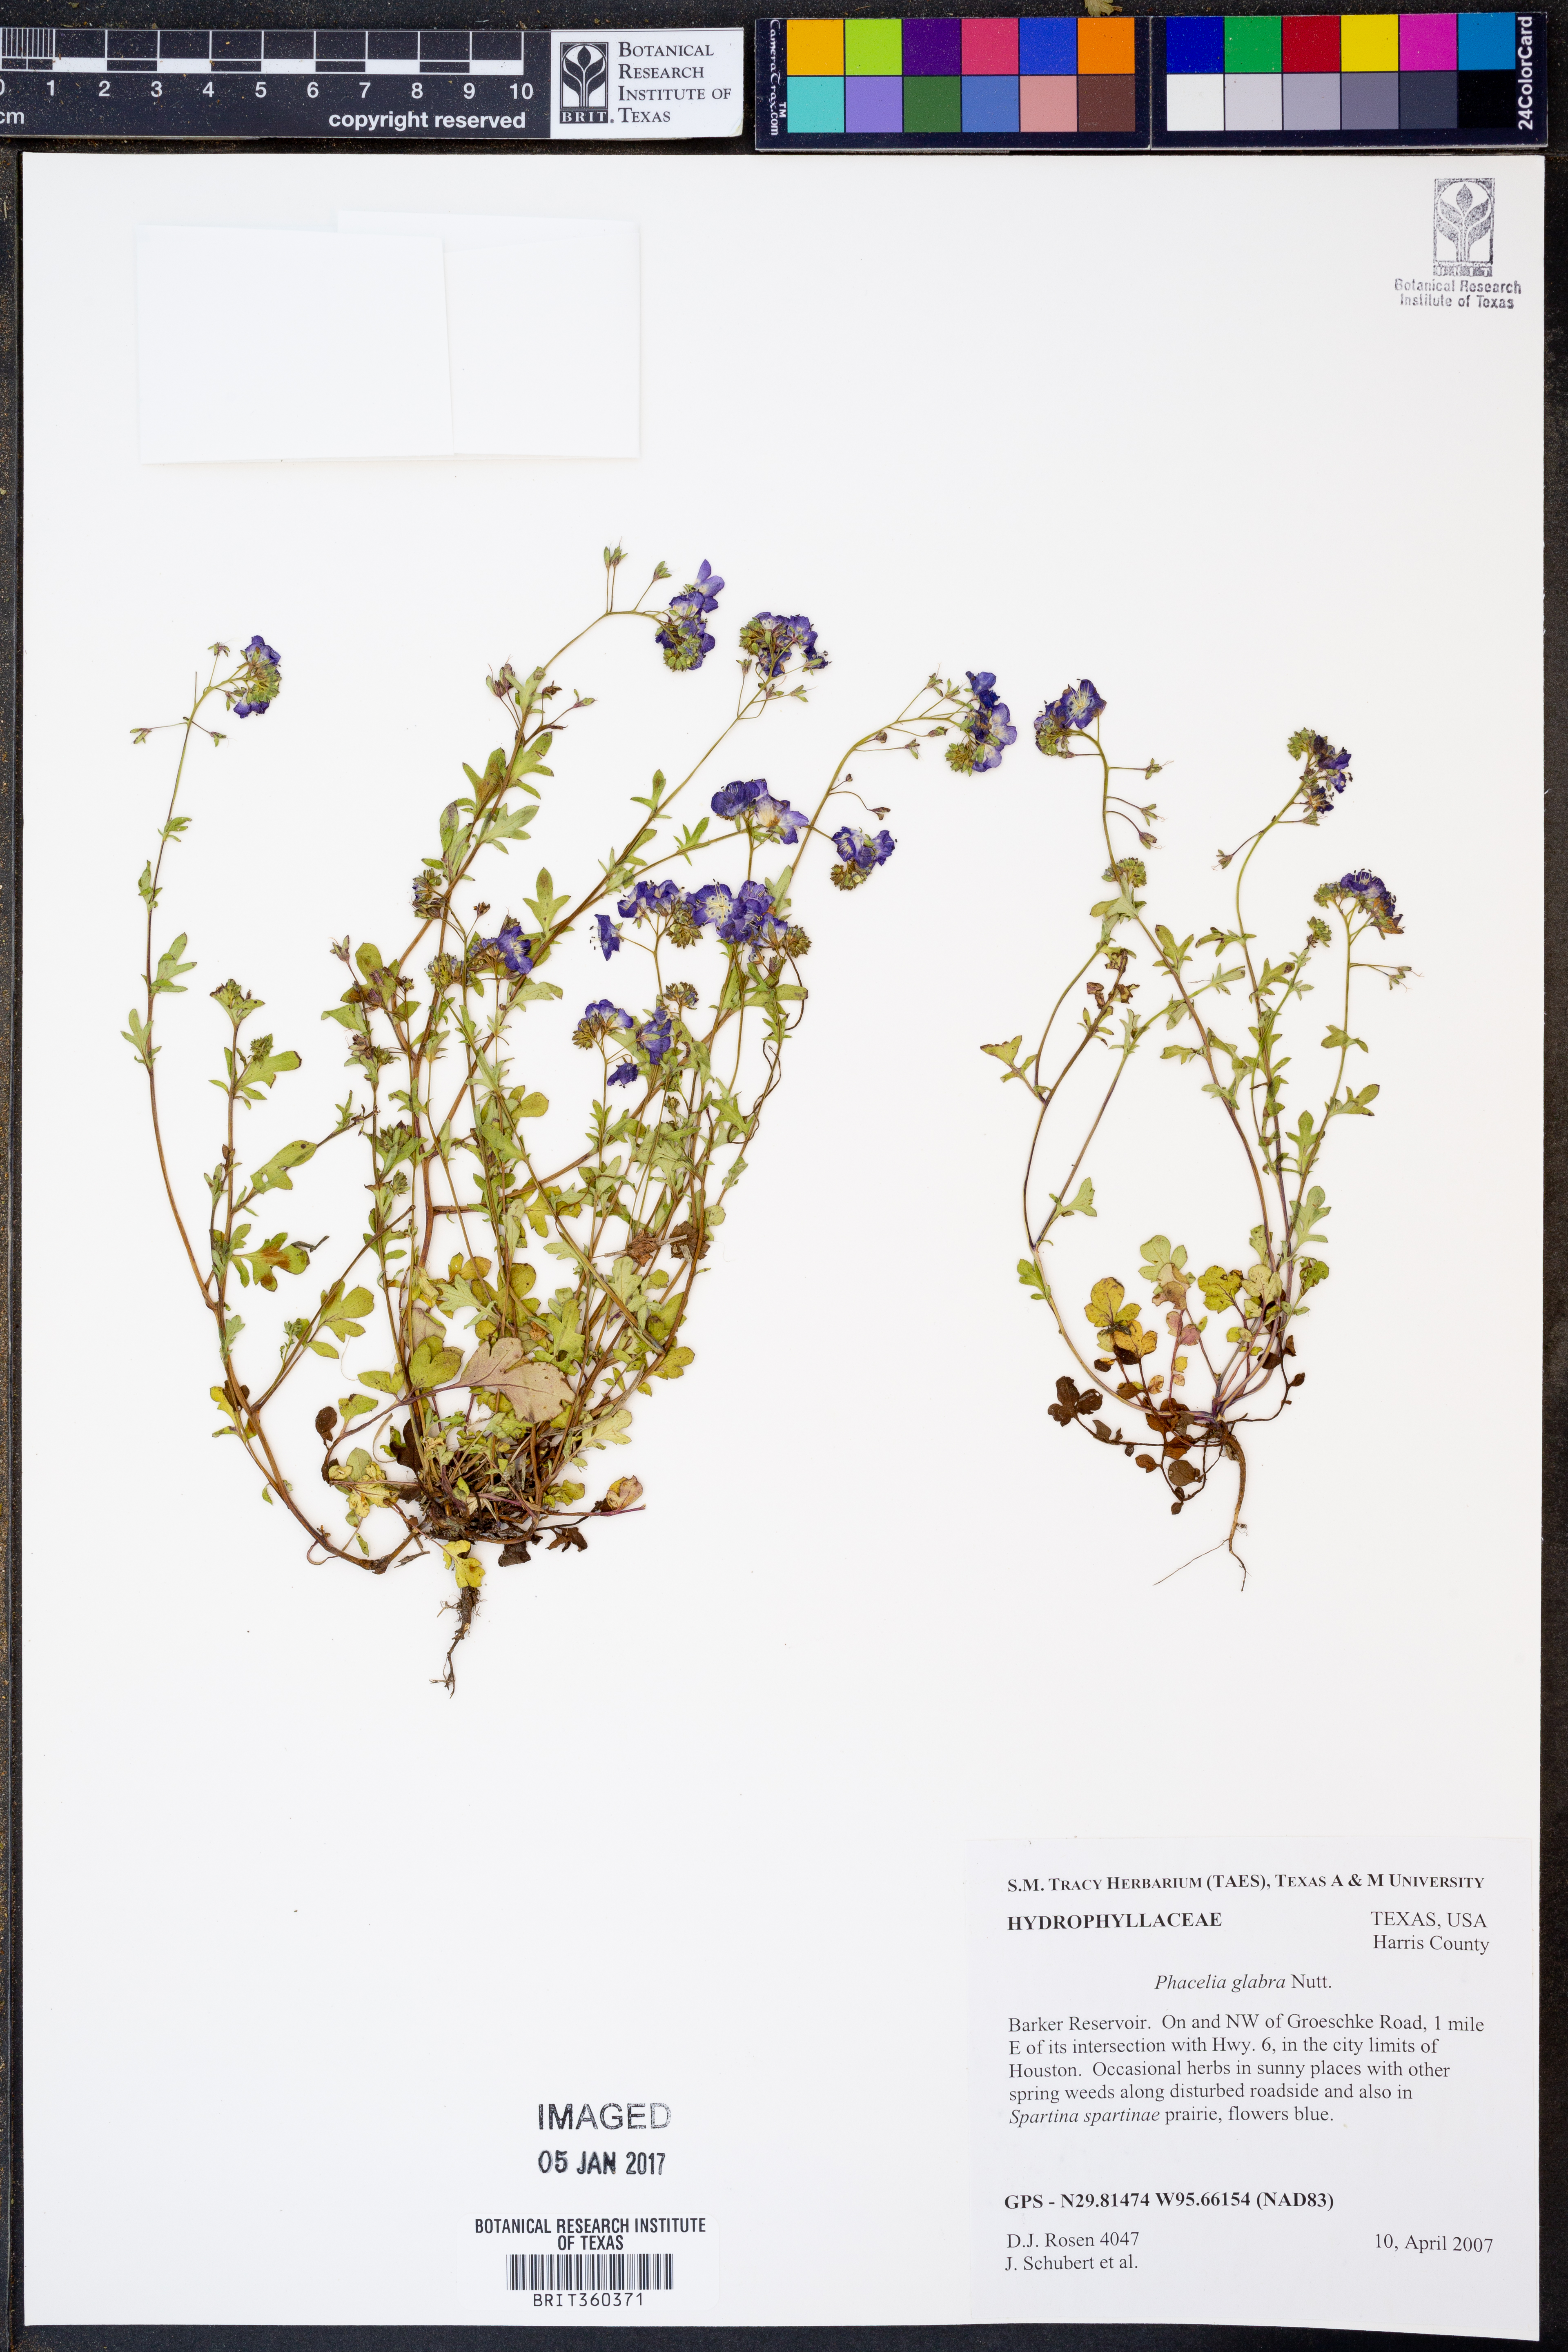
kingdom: Plantae
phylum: Tracheophyta
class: Magnoliopsida
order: Boraginales
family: Hydrophyllaceae
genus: Phacelia
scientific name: Phacelia glabra
